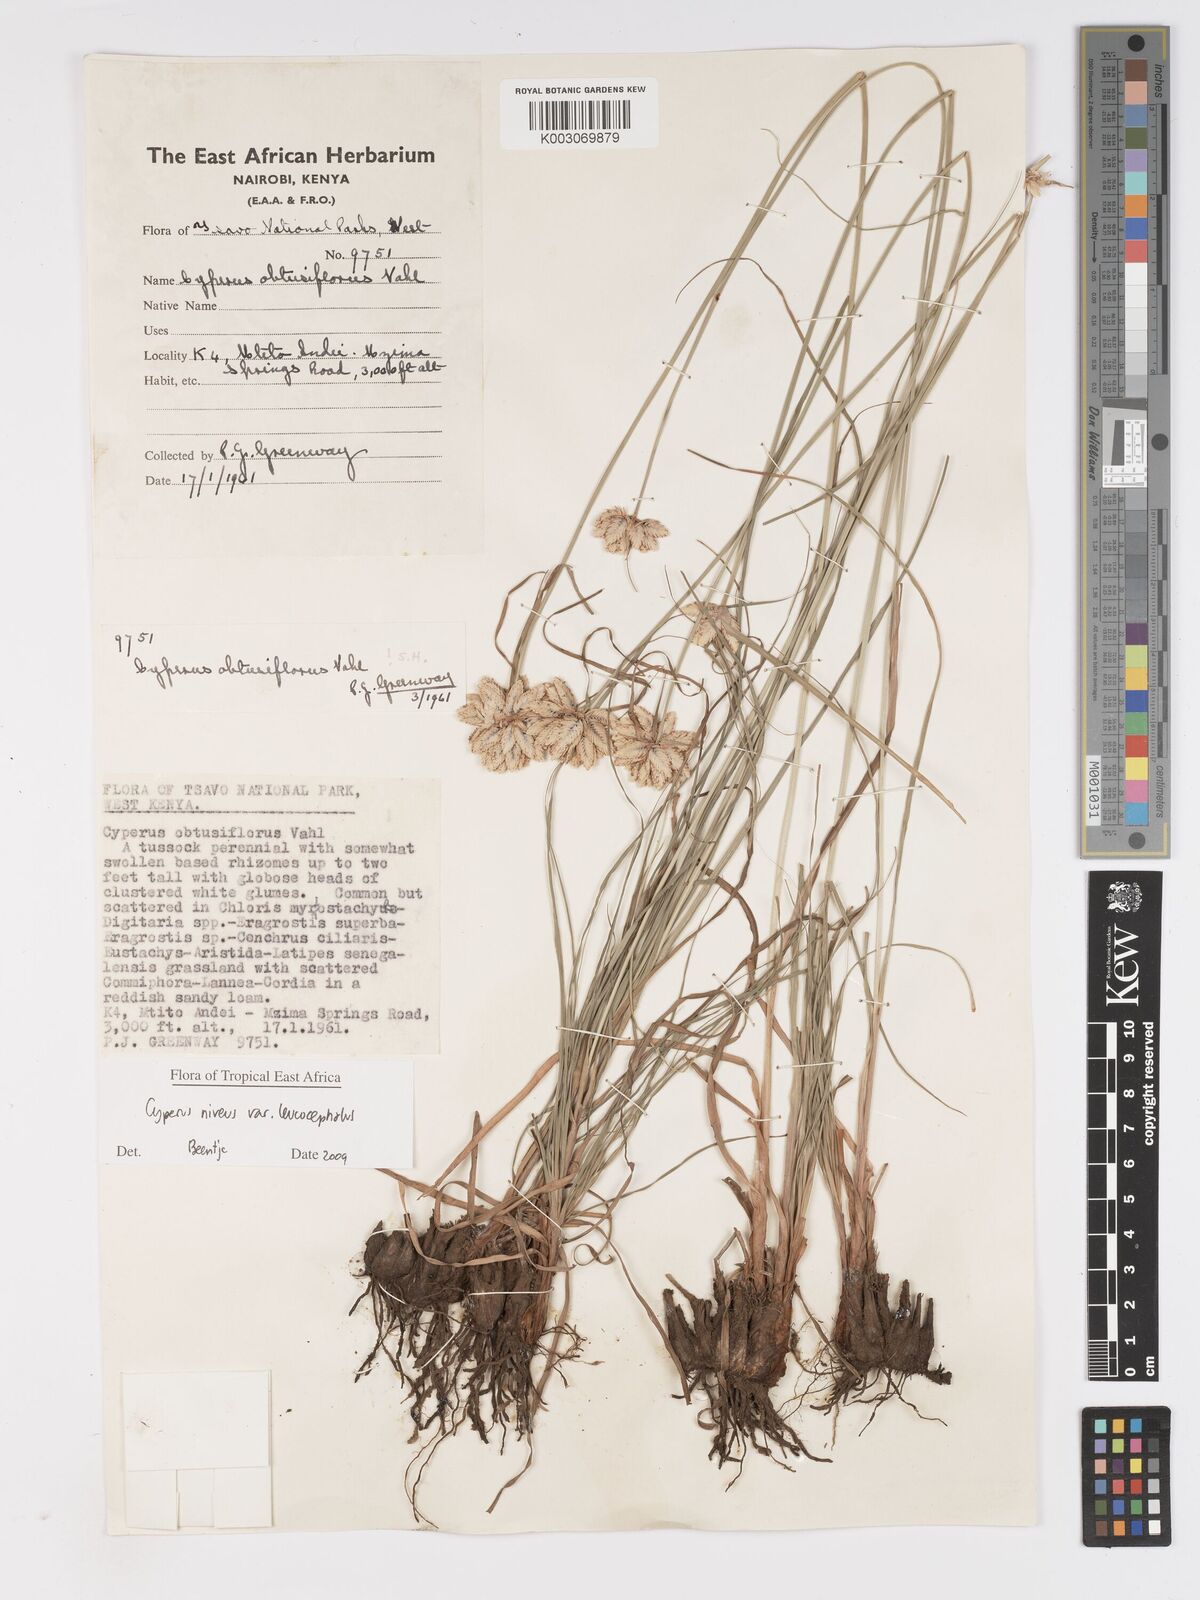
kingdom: Plantae
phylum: Tracheophyta
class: Liliopsida
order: Poales
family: Cyperaceae
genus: Cyperus
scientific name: Cyperus niveus
